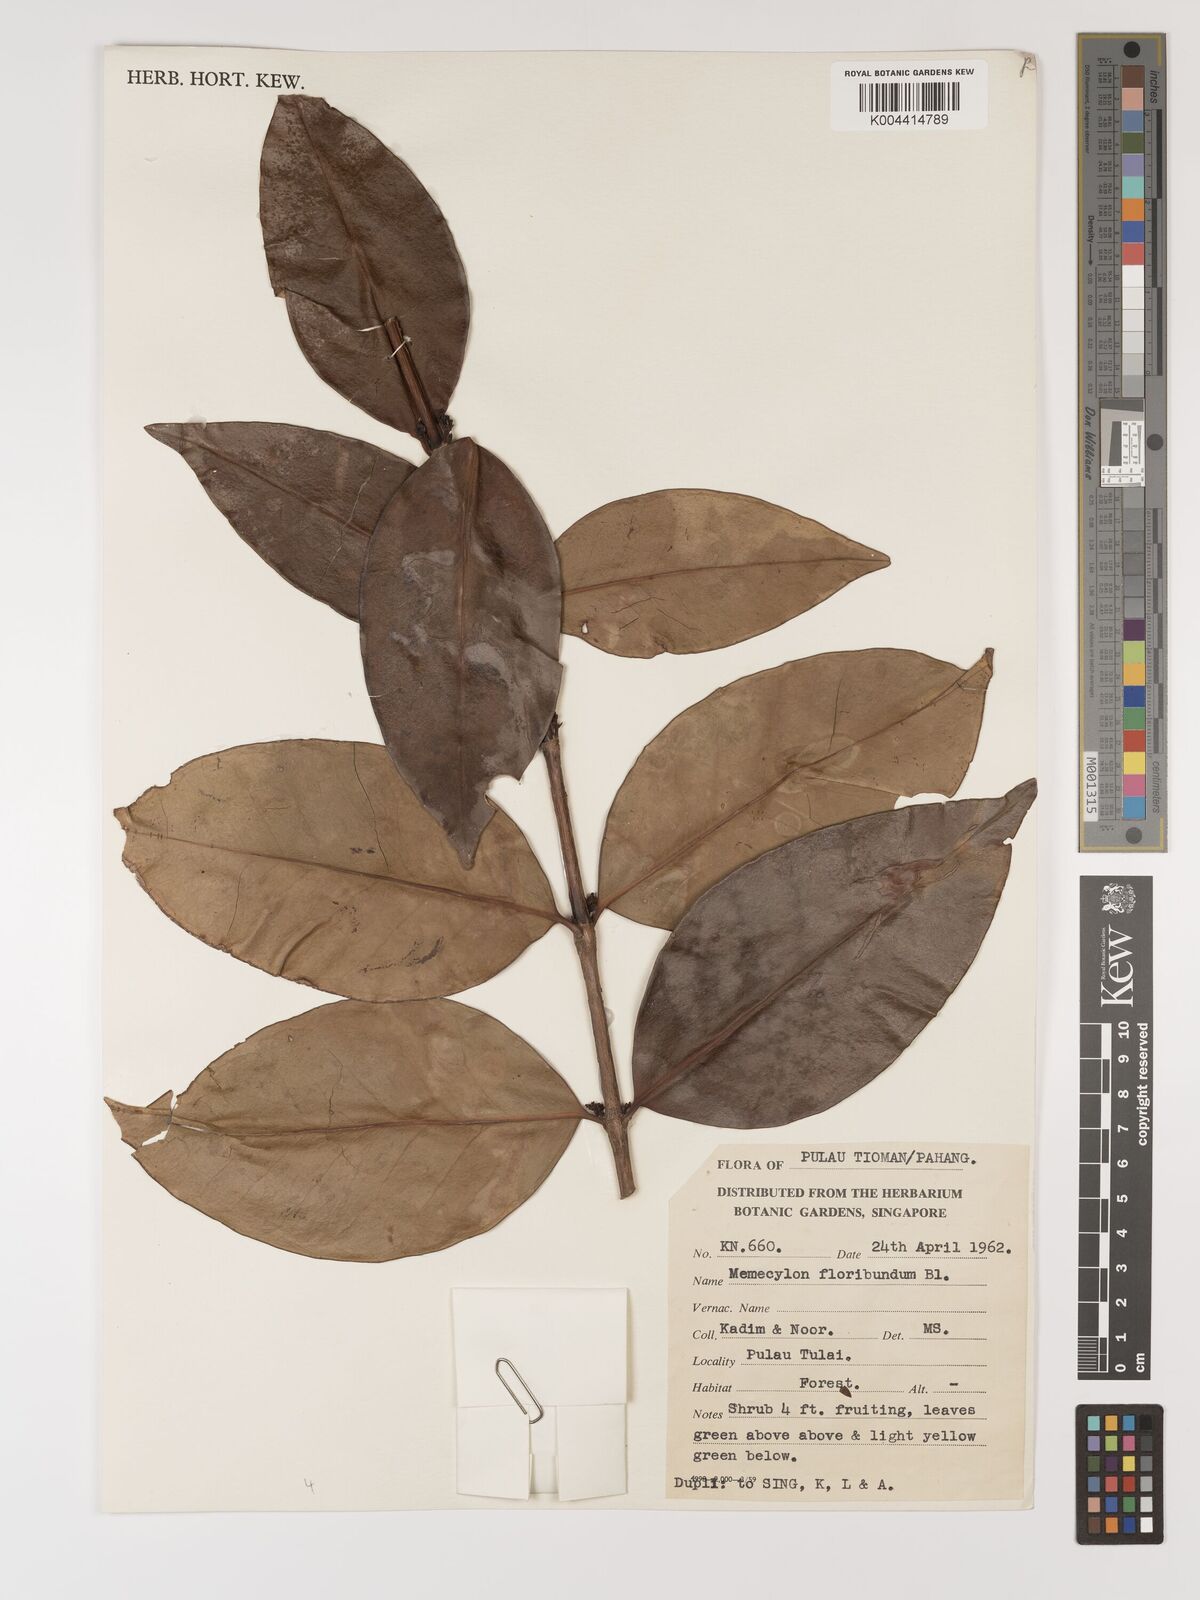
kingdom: Plantae
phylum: Tracheophyta
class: Magnoliopsida
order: Myrtales
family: Melastomataceae
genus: Memecylon
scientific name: Memecylon
